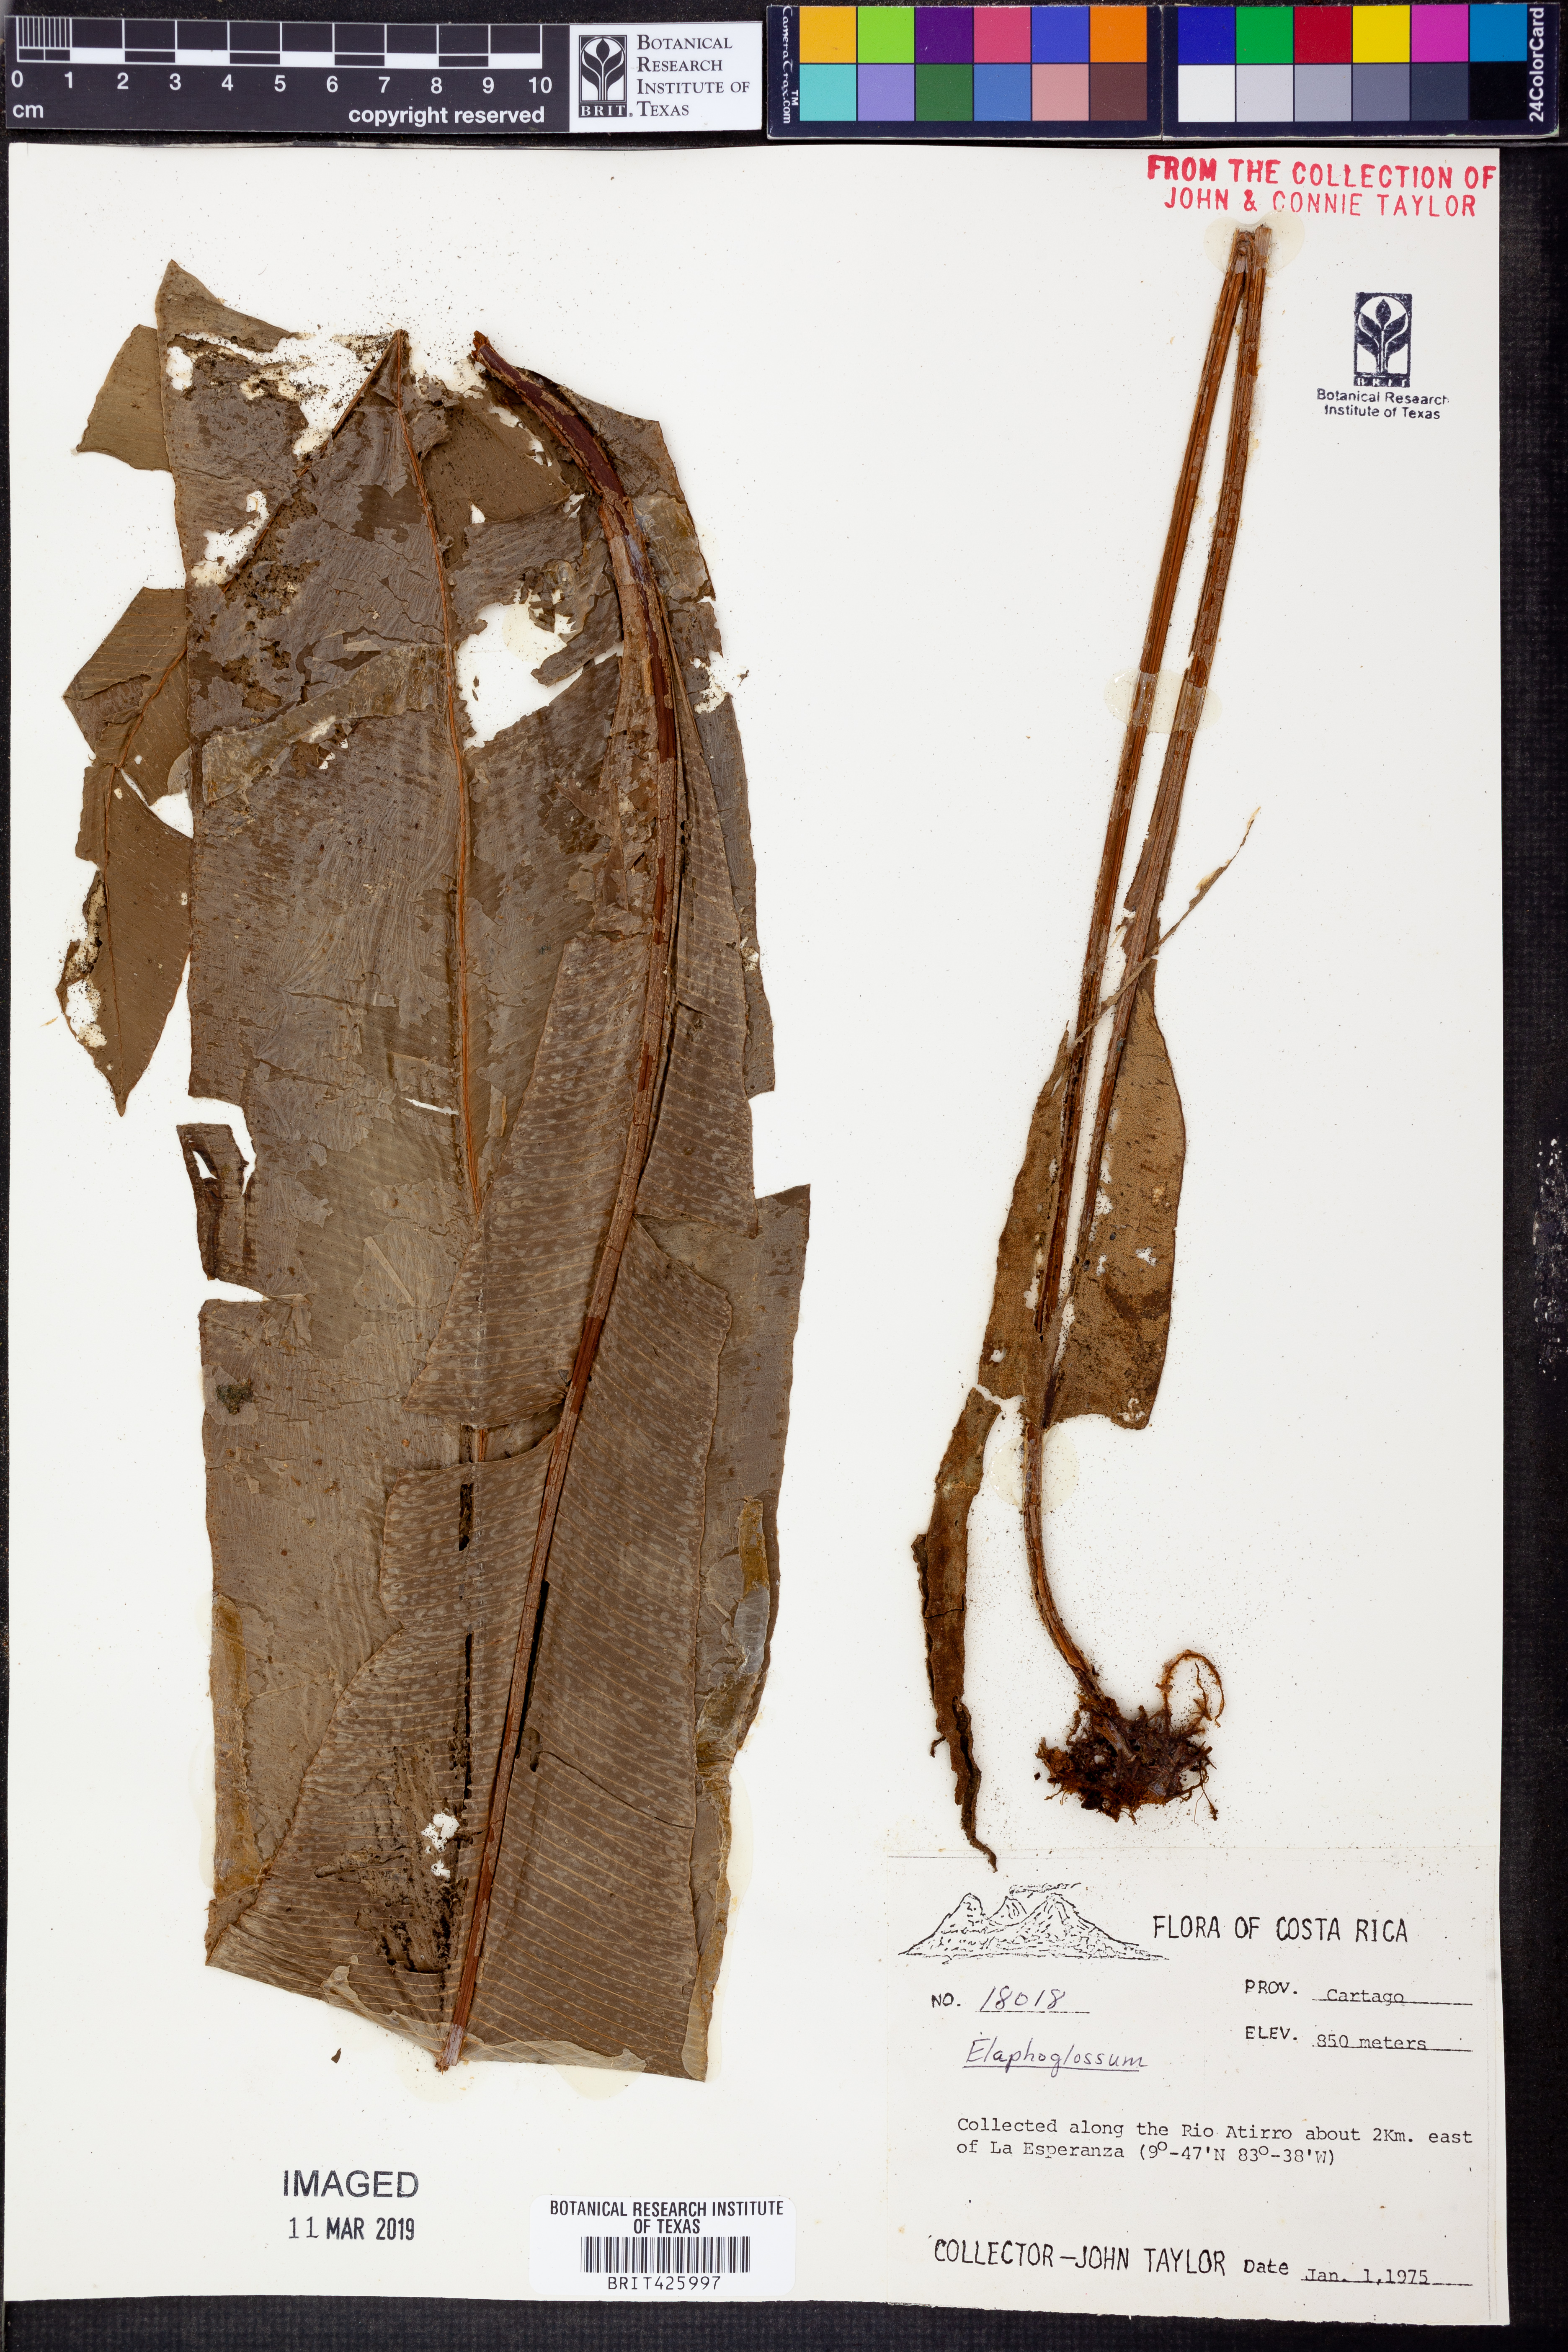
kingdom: Plantae
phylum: Tracheophyta
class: Polypodiopsida
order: Polypodiales
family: Dryopteridaceae
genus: Elaphoglossum
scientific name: Elaphoglossum oblanceolatum
